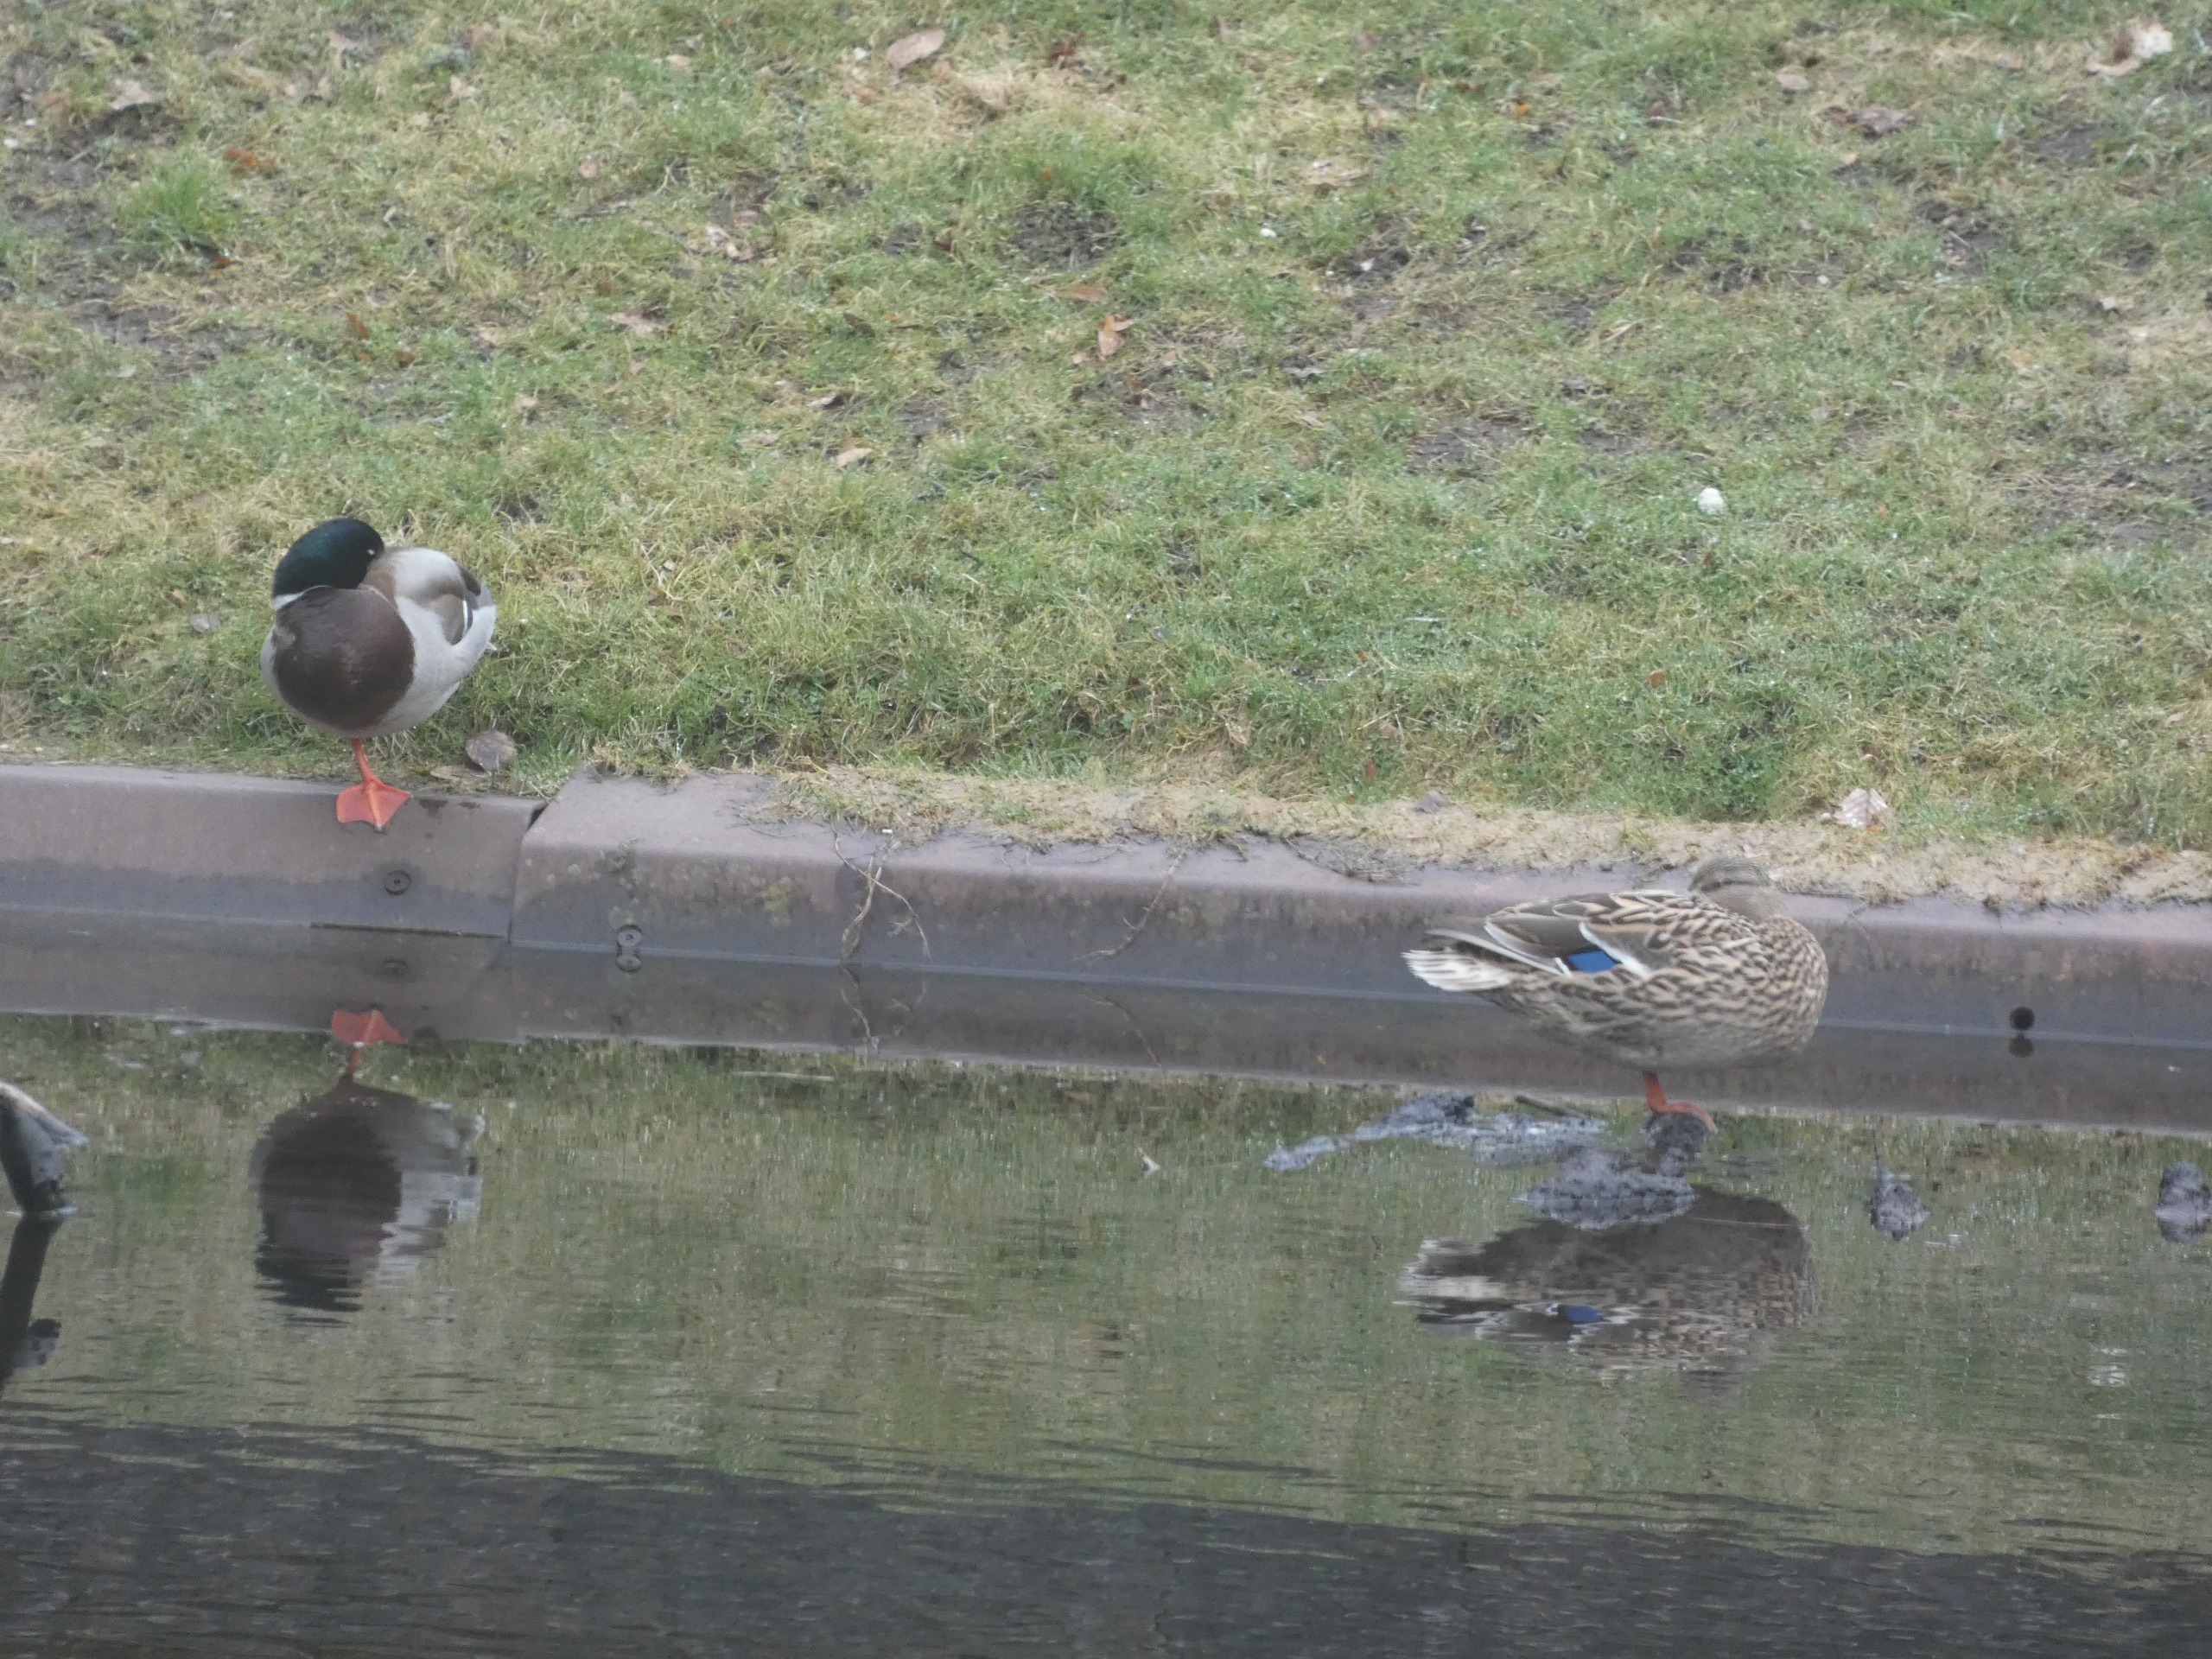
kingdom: Animalia
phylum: Chordata
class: Aves
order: Anseriformes
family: Anatidae
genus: Anas
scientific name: Anas platyrhynchos
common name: Gråand
